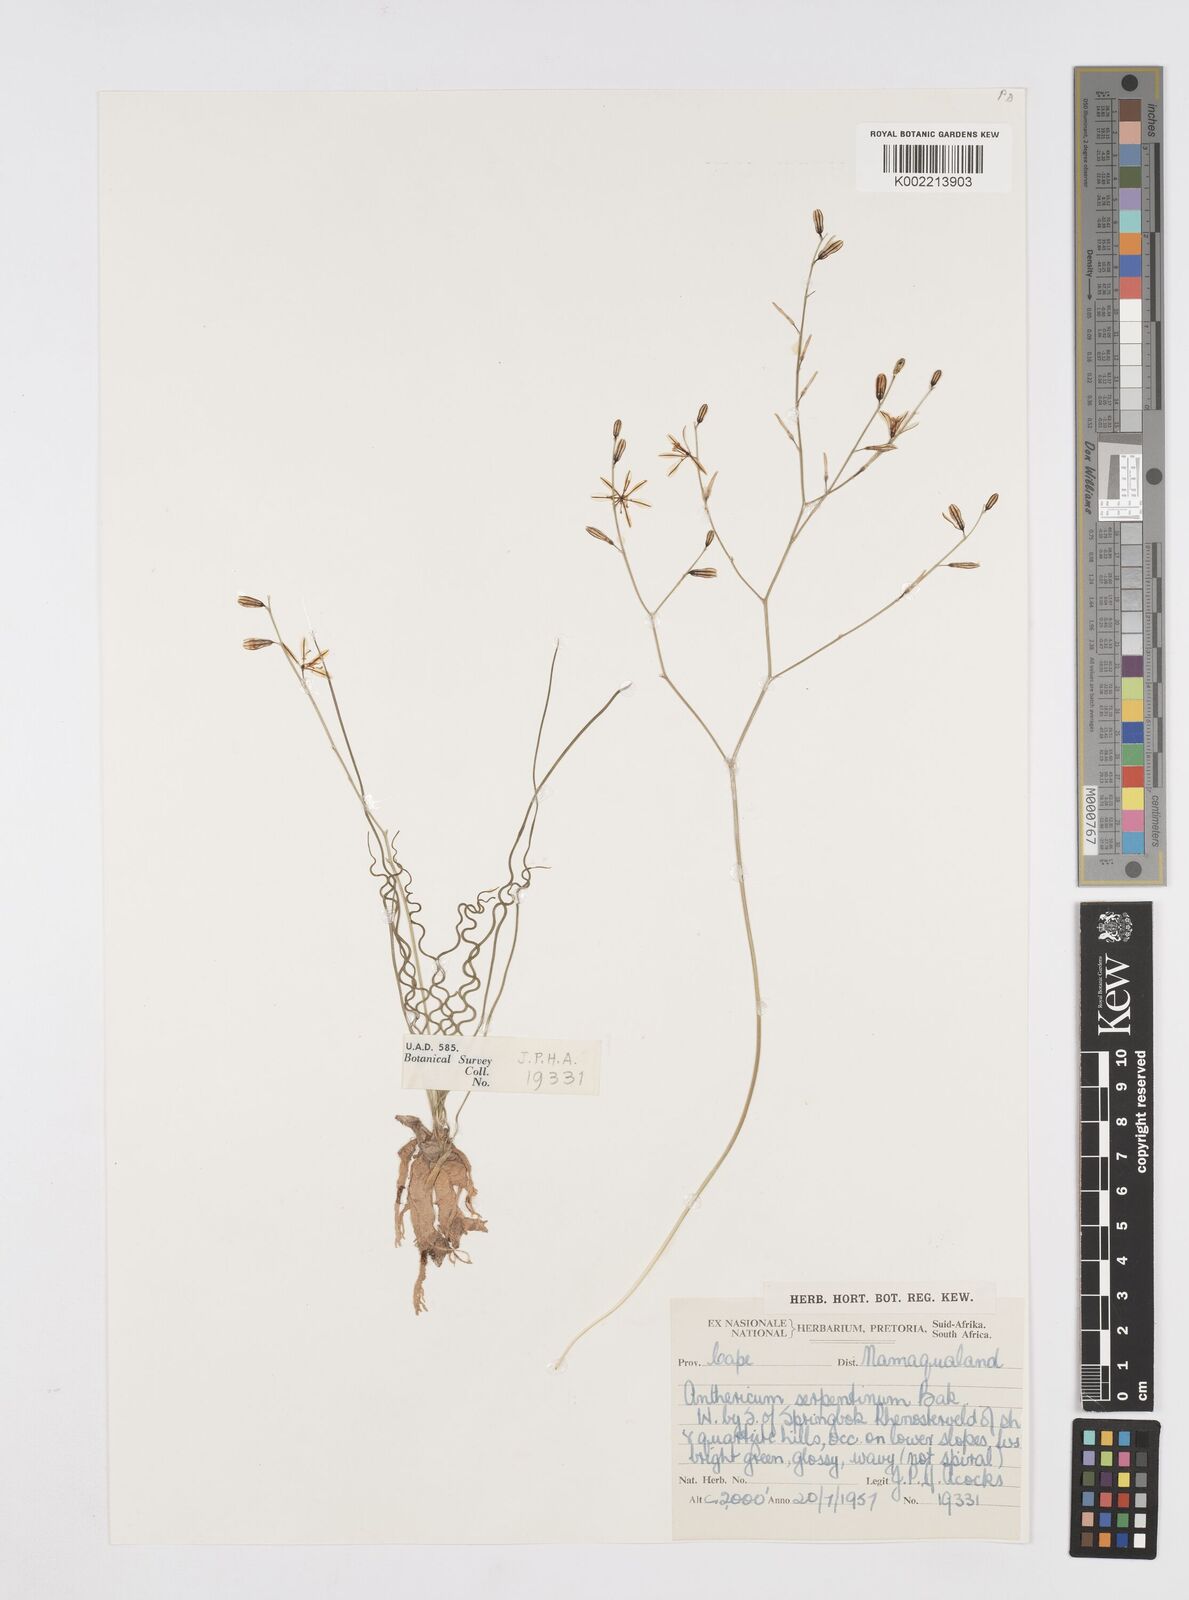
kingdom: Plantae
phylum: Tracheophyta
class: Liliopsida
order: Asparagales
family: Asphodelaceae
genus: Trachyandra
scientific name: Trachyandra flexifolia
